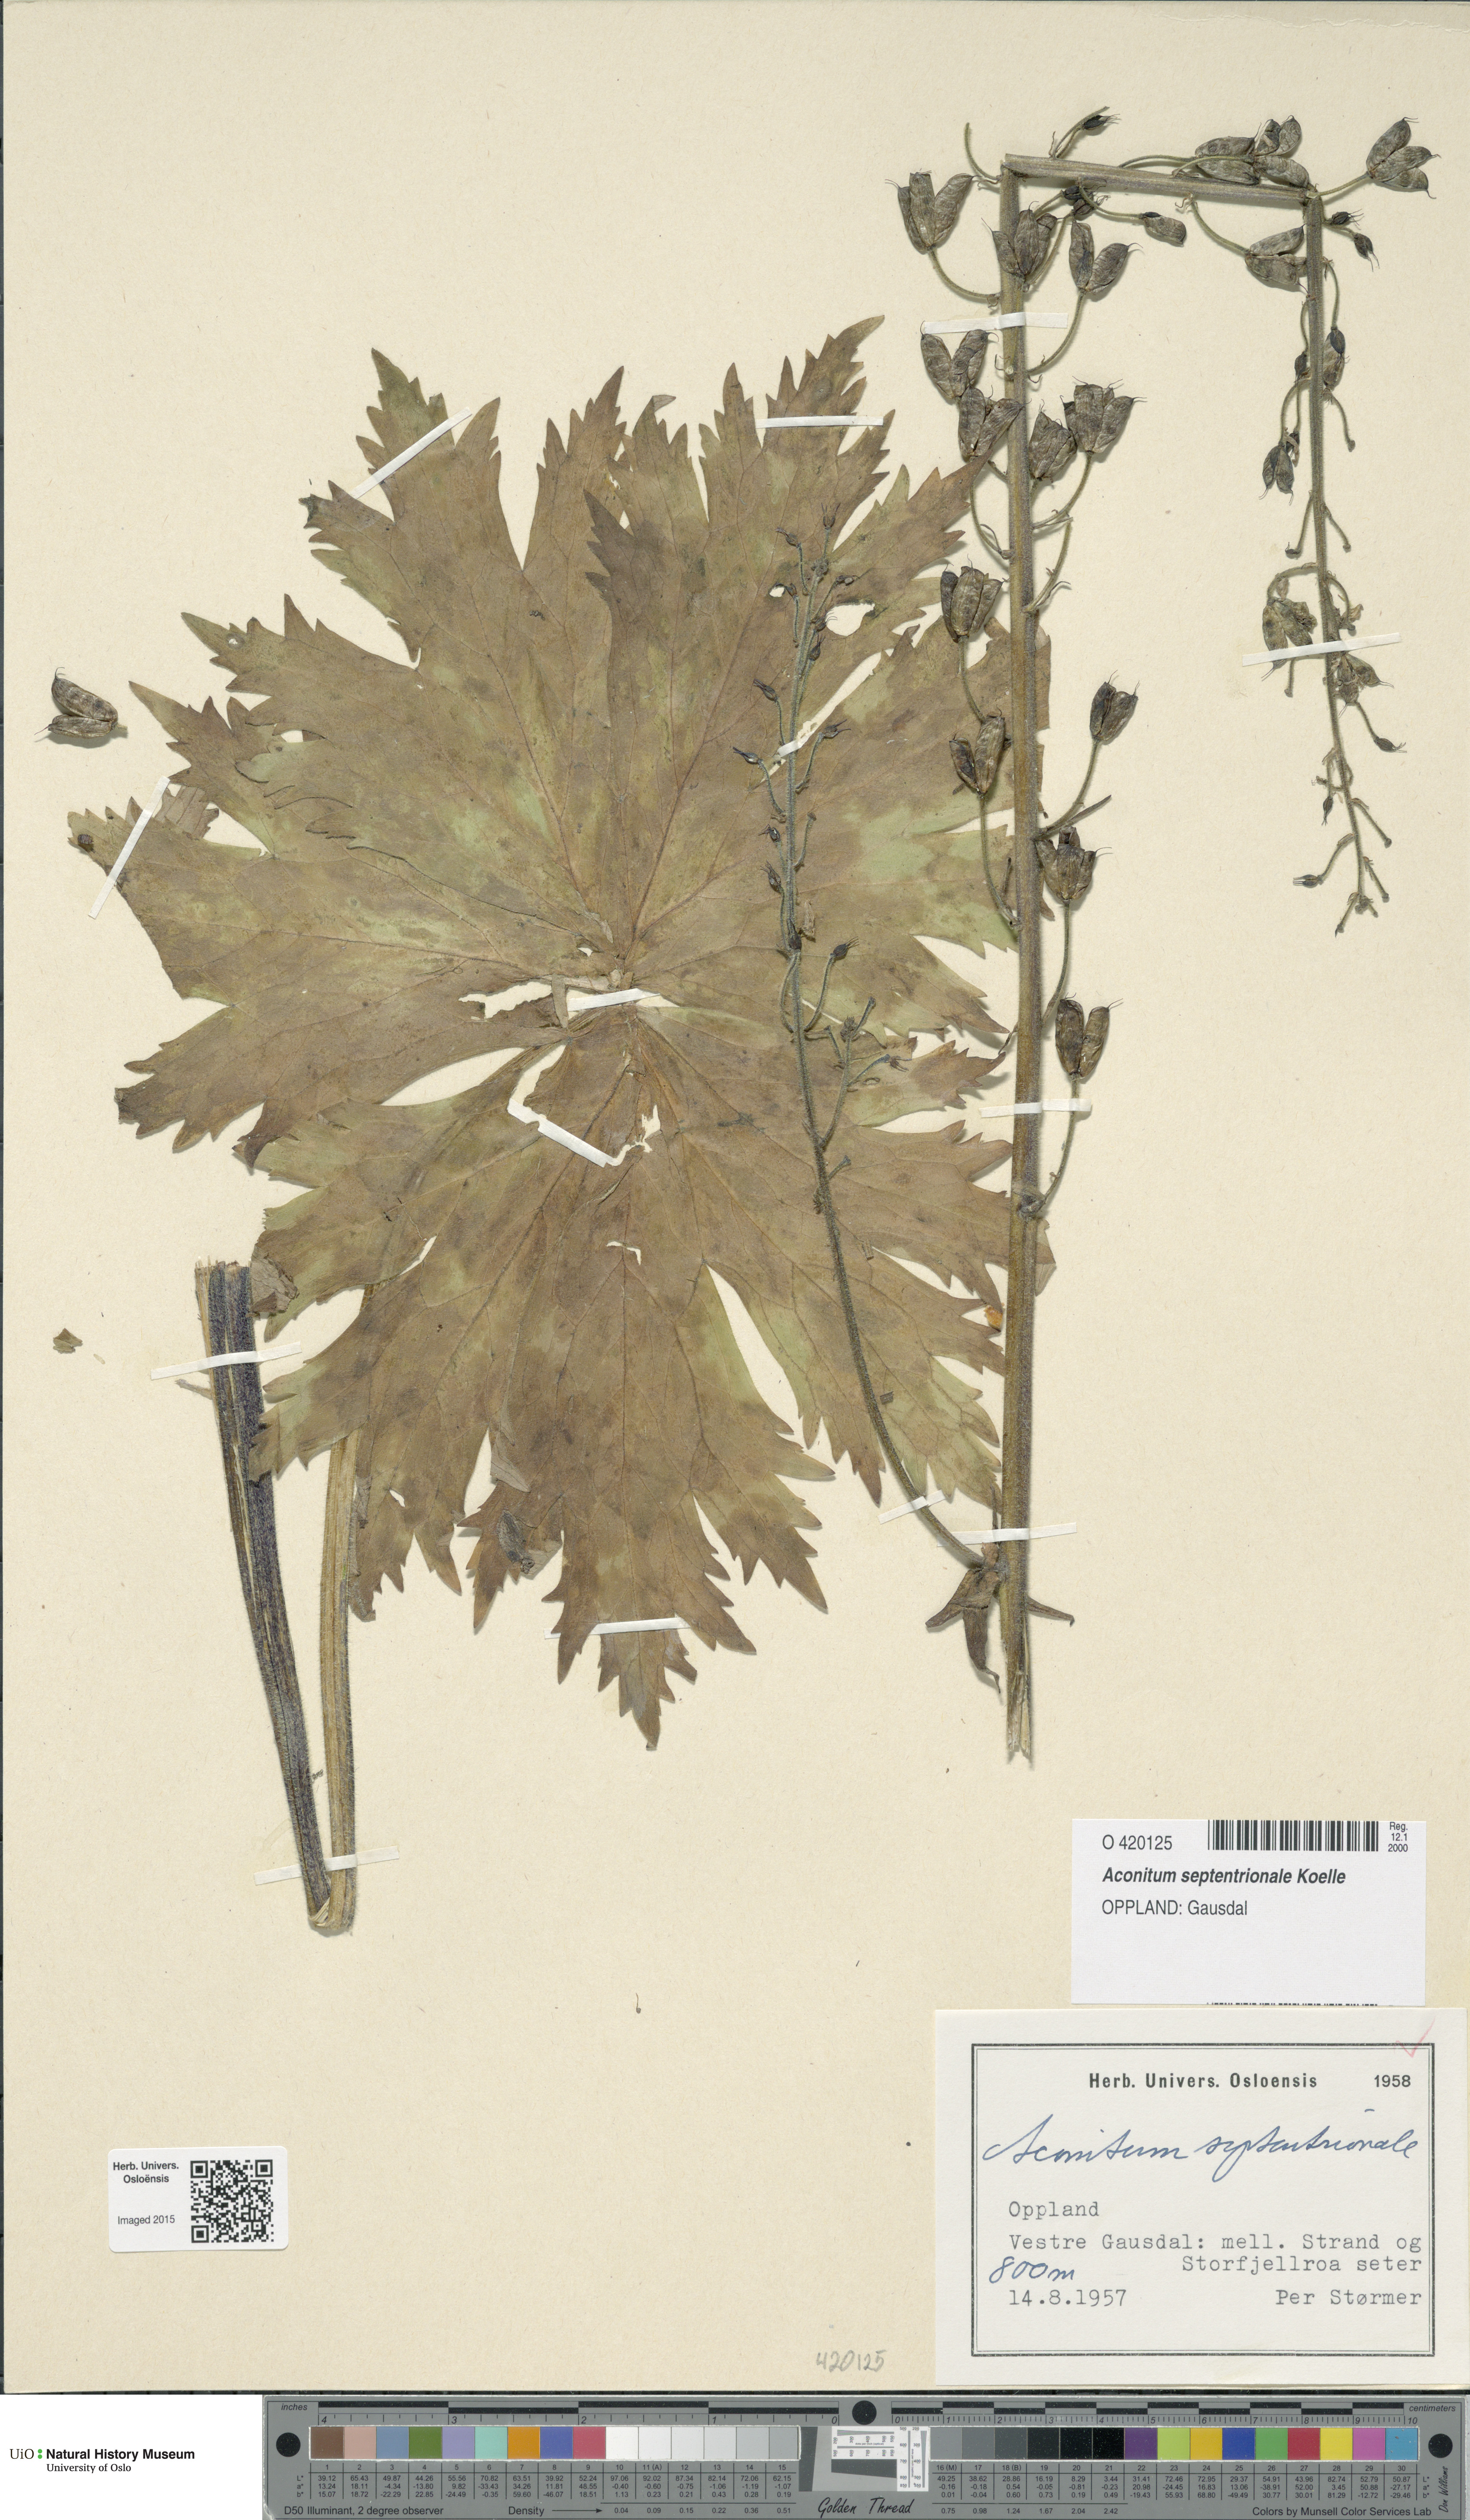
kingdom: Plantae
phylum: Tracheophyta
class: Magnoliopsida
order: Ranunculales
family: Ranunculaceae
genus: Aconitum
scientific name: Aconitum septentrionale
